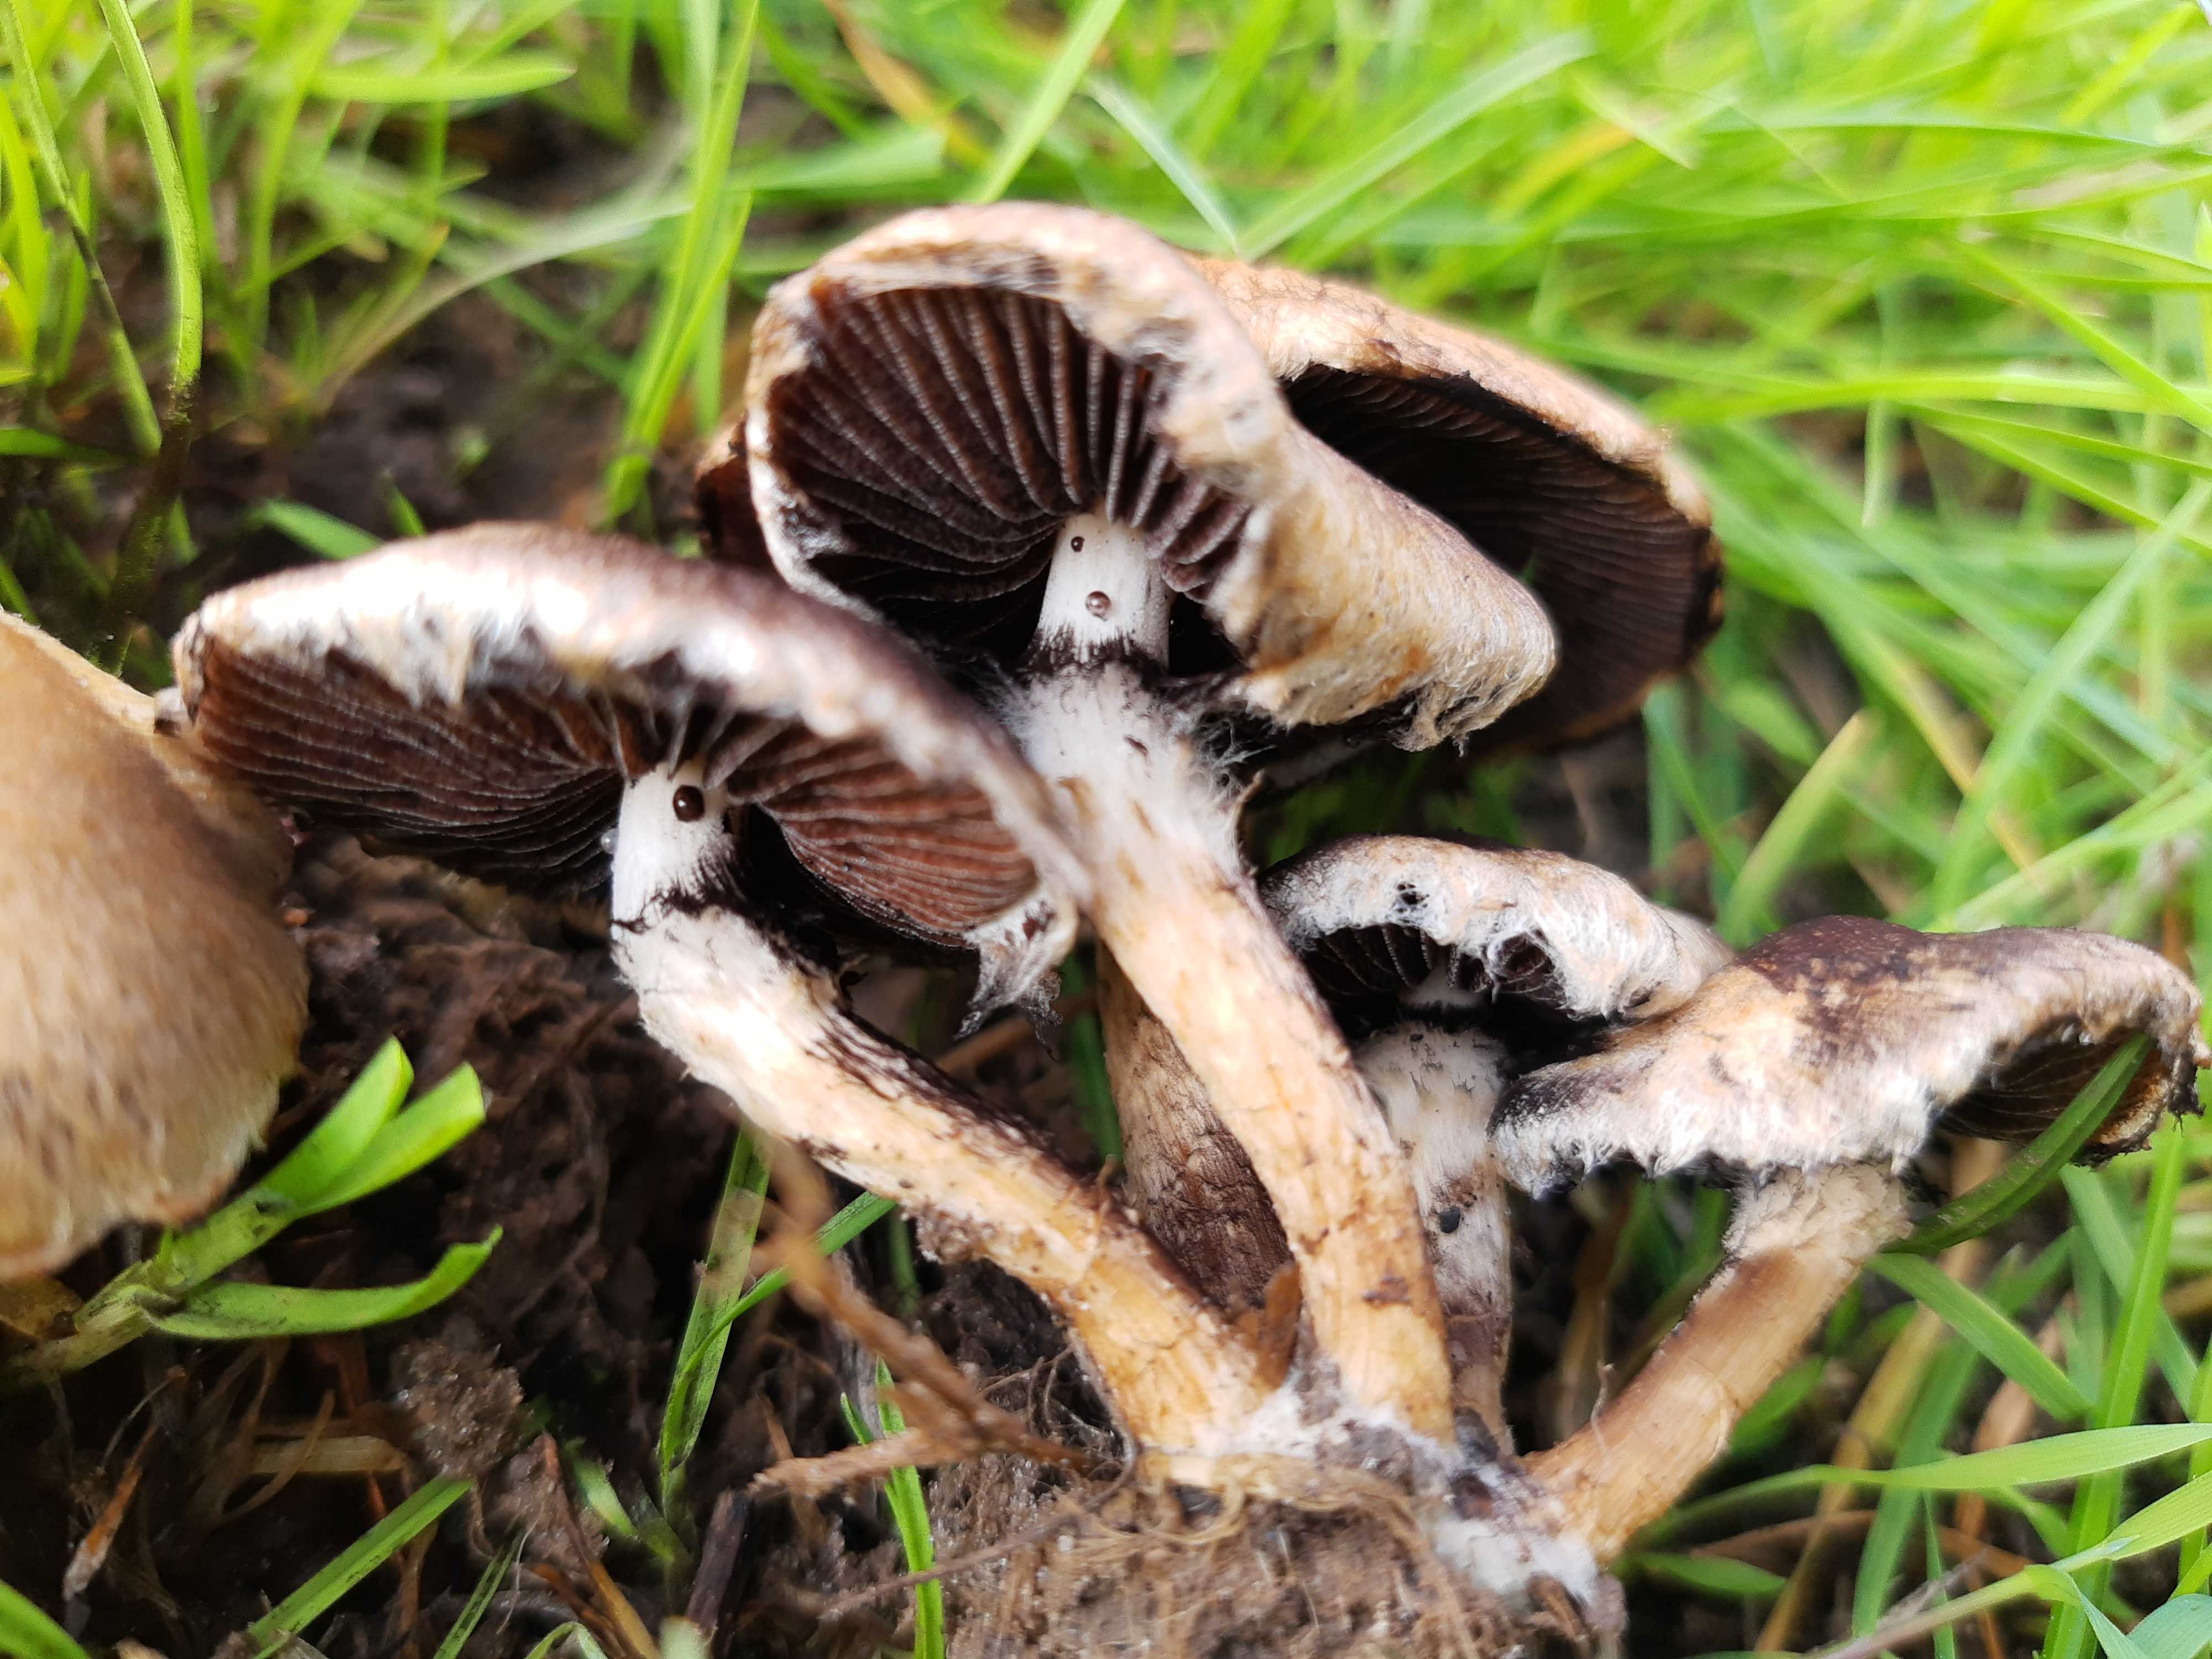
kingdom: Fungi
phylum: Basidiomycota
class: Agaricomycetes
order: Agaricales
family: Psathyrellaceae
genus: Lacrymaria
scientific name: Lacrymaria lacrymabunda
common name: grædende mørkhat
